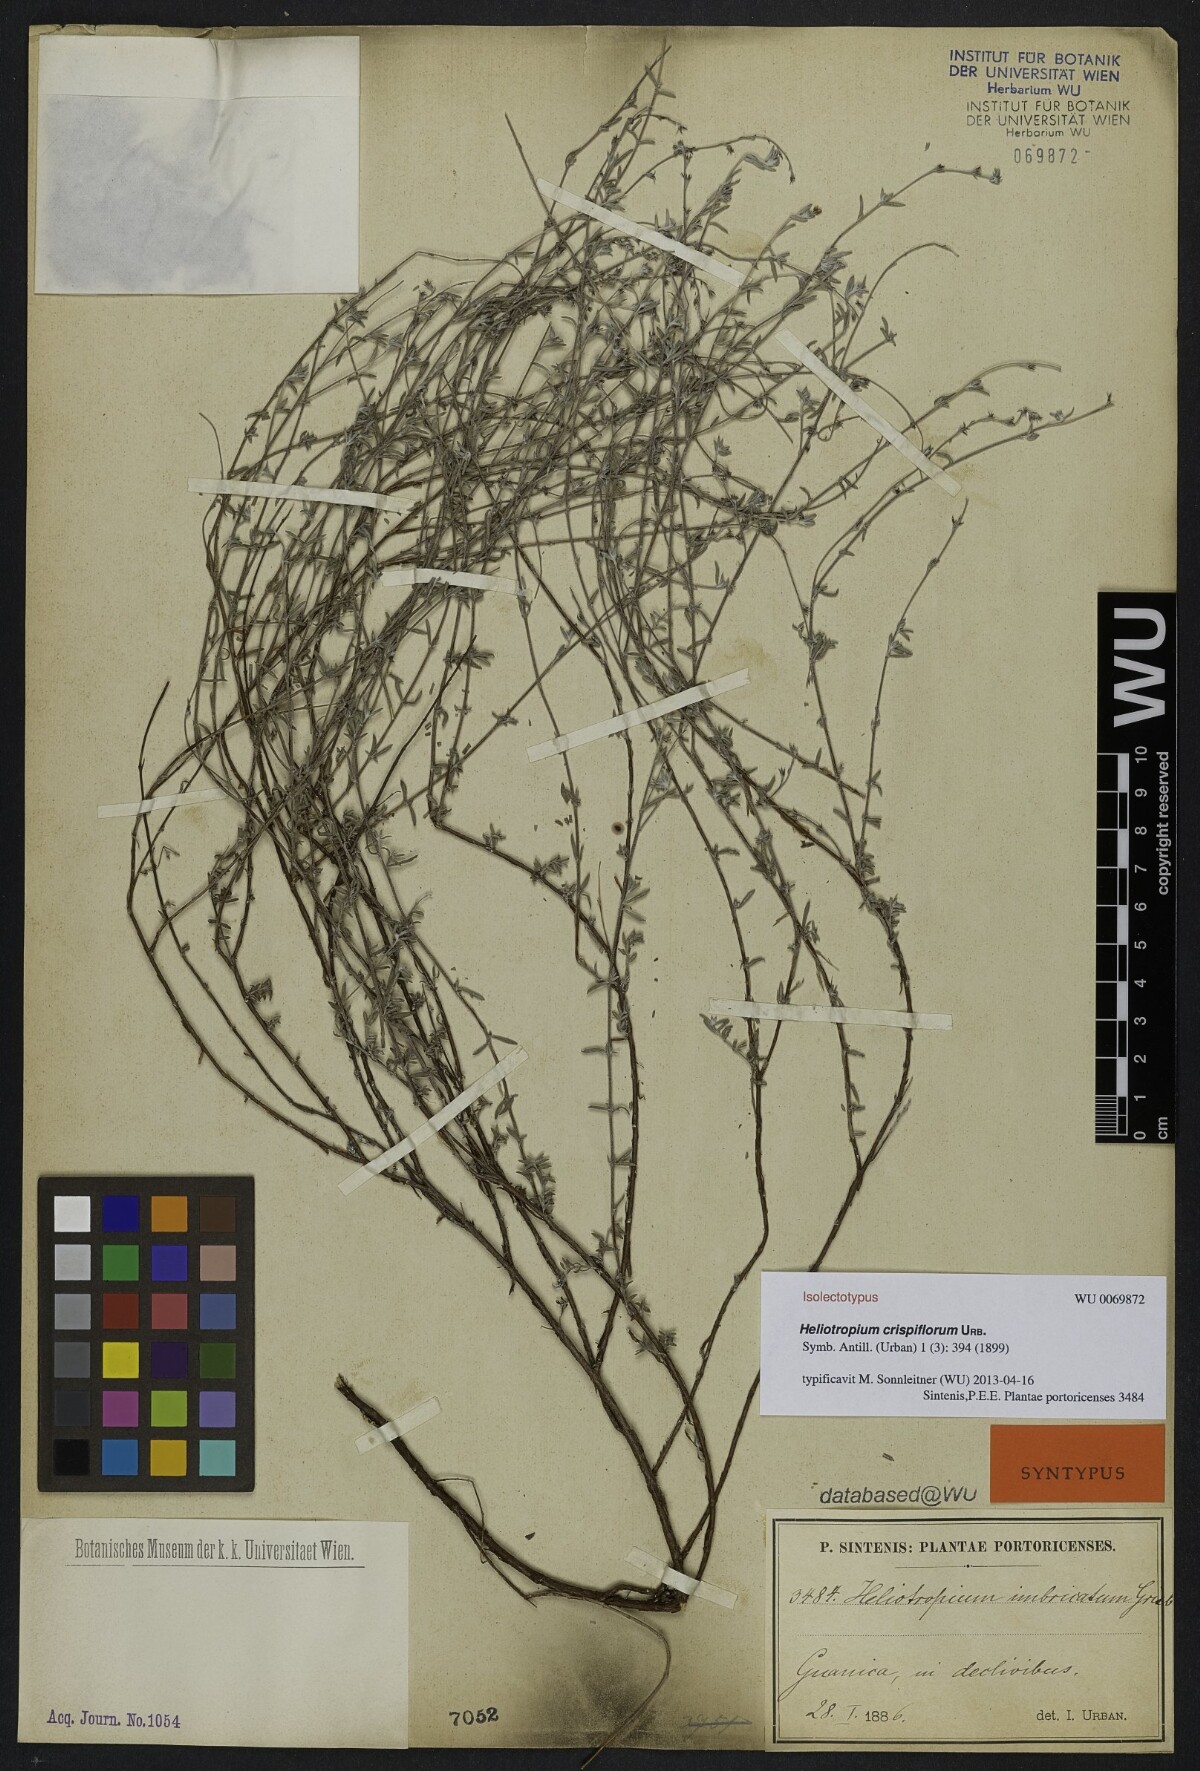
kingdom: Plantae
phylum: Tracheophyta
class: Magnoliopsida
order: Boraginales
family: Heliotropiaceae
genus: Euploca
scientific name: Euploca microphylla
